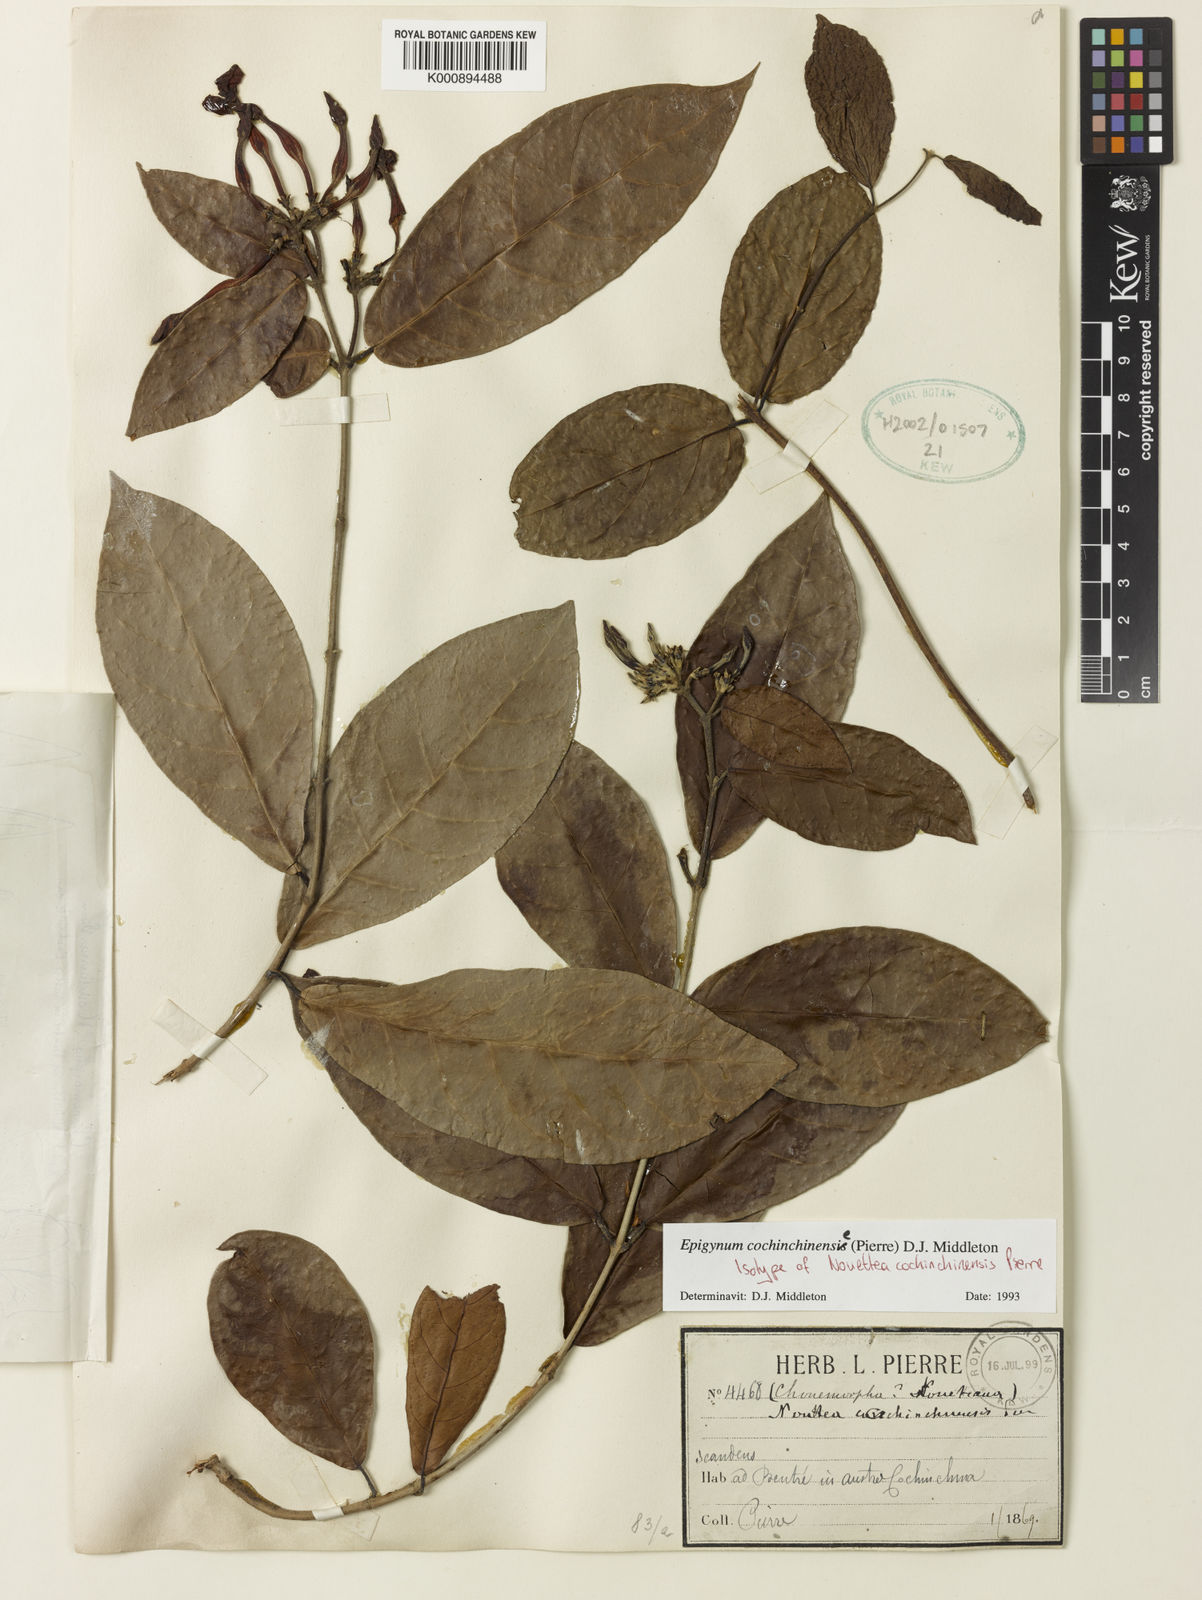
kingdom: Plantae
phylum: Tracheophyta
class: Magnoliopsida
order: Gentianales
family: Apocynaceae
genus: Epigynum
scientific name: Epigynum cochinchinensis
